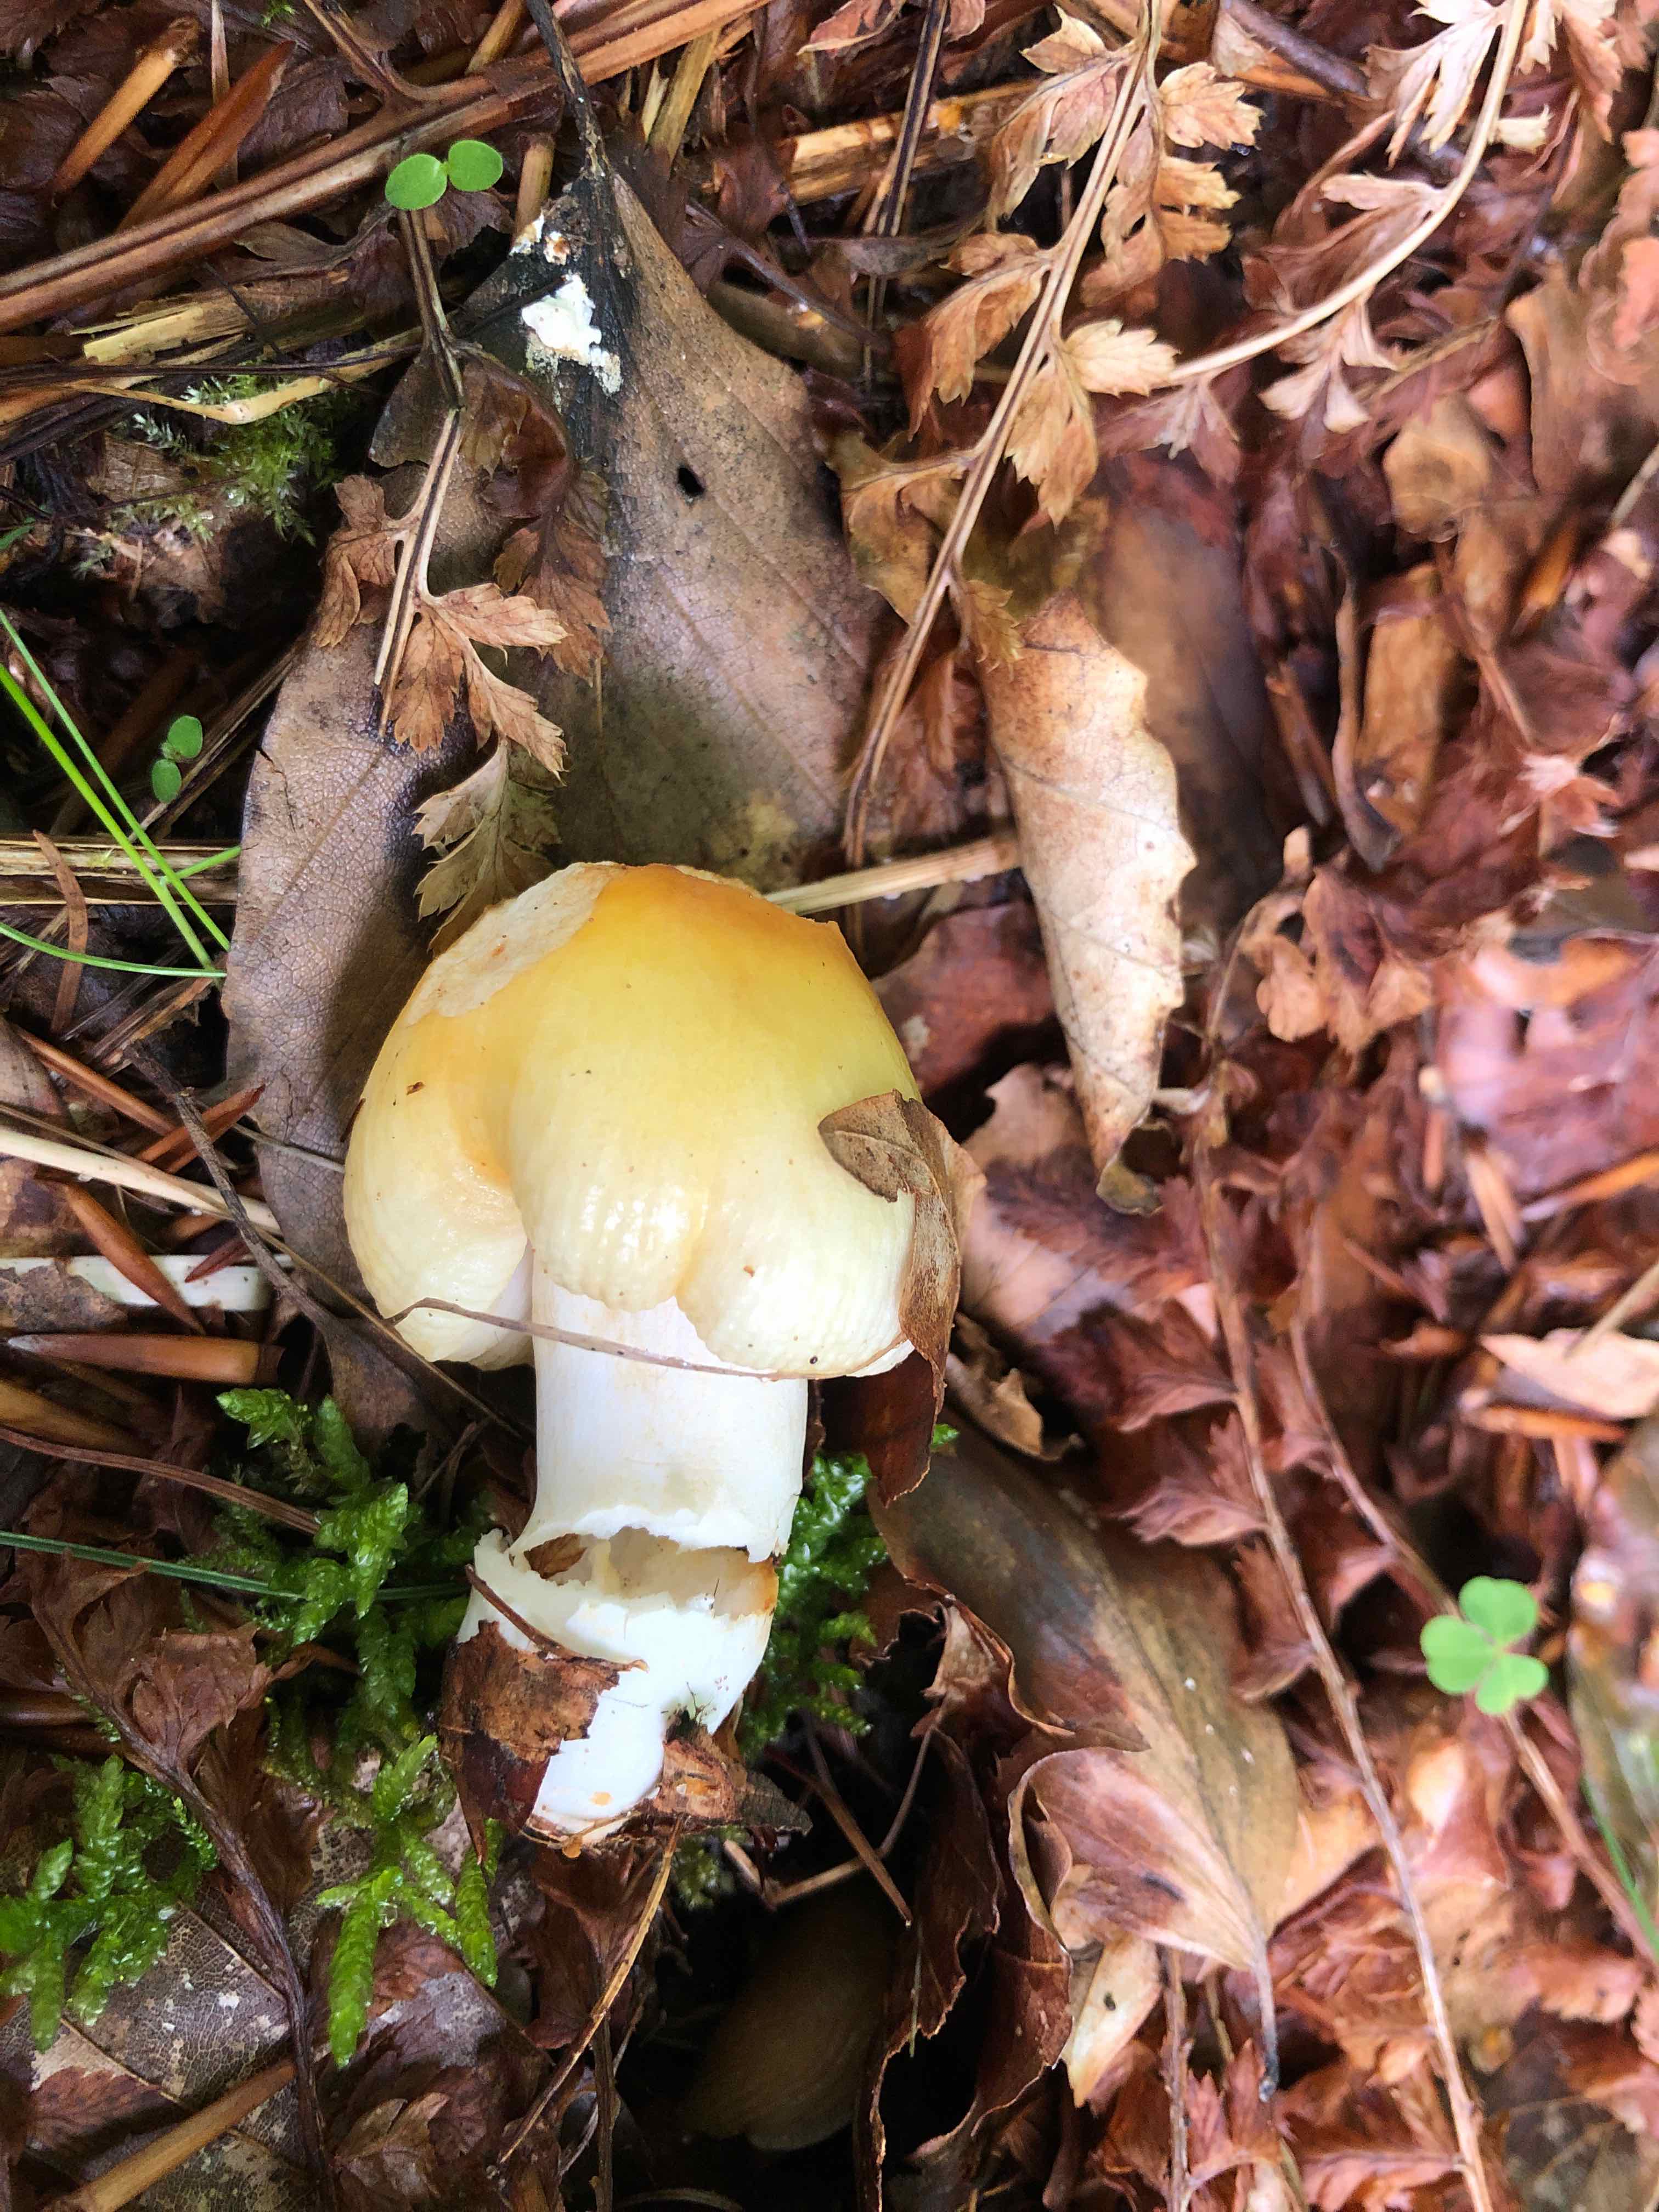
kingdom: Fungi
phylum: Basidiomycota
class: Agaricomycetes
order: Russulales
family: Russulaceae
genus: Russula
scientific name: Russula solaris
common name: sol-skørhat
